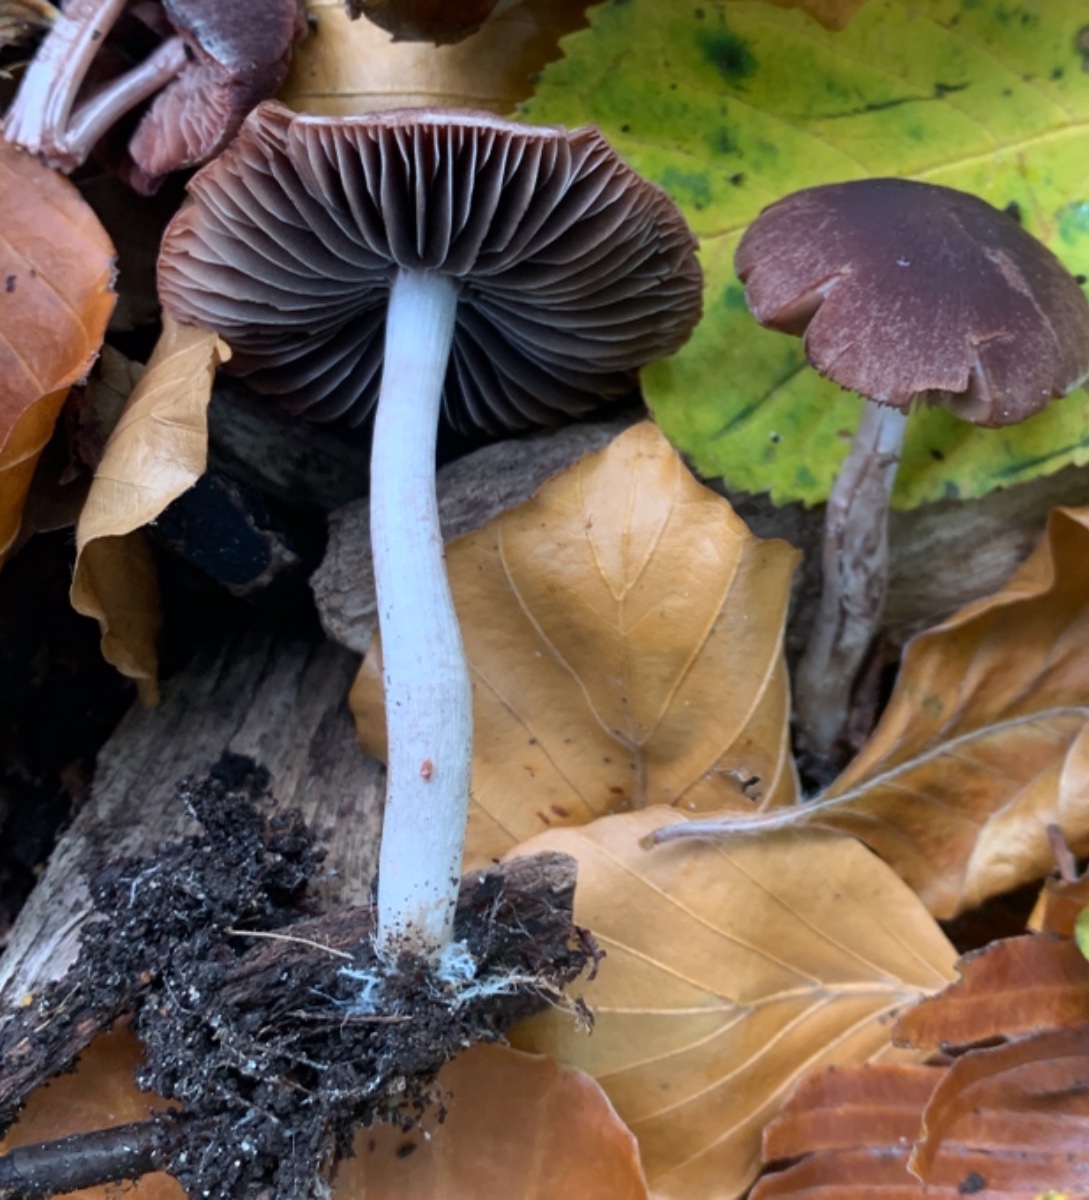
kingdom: Fungi
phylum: Basidiomycota
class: Agaricomycetes
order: Agaricales
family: Psathyrellaceae
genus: Psathyrella
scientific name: Psathyrella bipellis
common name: vinrød mørkhat
